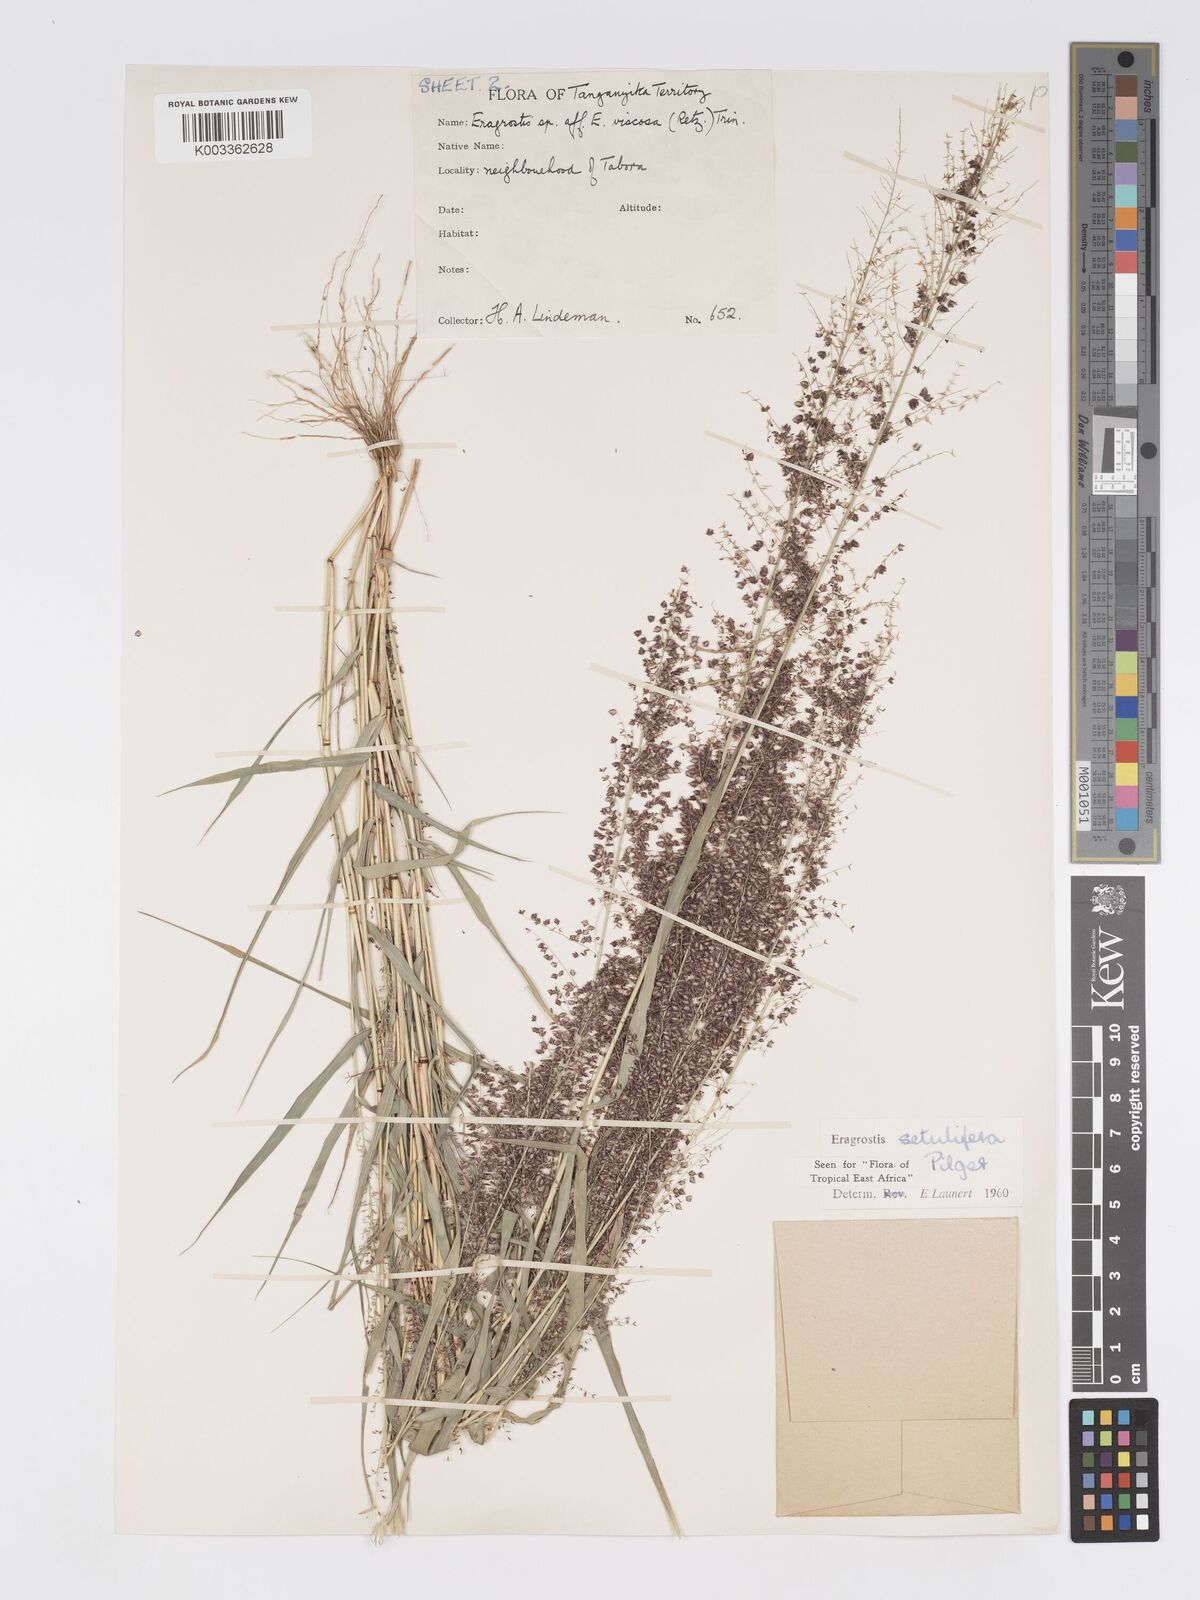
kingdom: Plantae
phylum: Tracheophyta
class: Liliopsida
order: Poales
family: Poaceae
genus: Eragrostis
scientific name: Eragrostis setulifera
